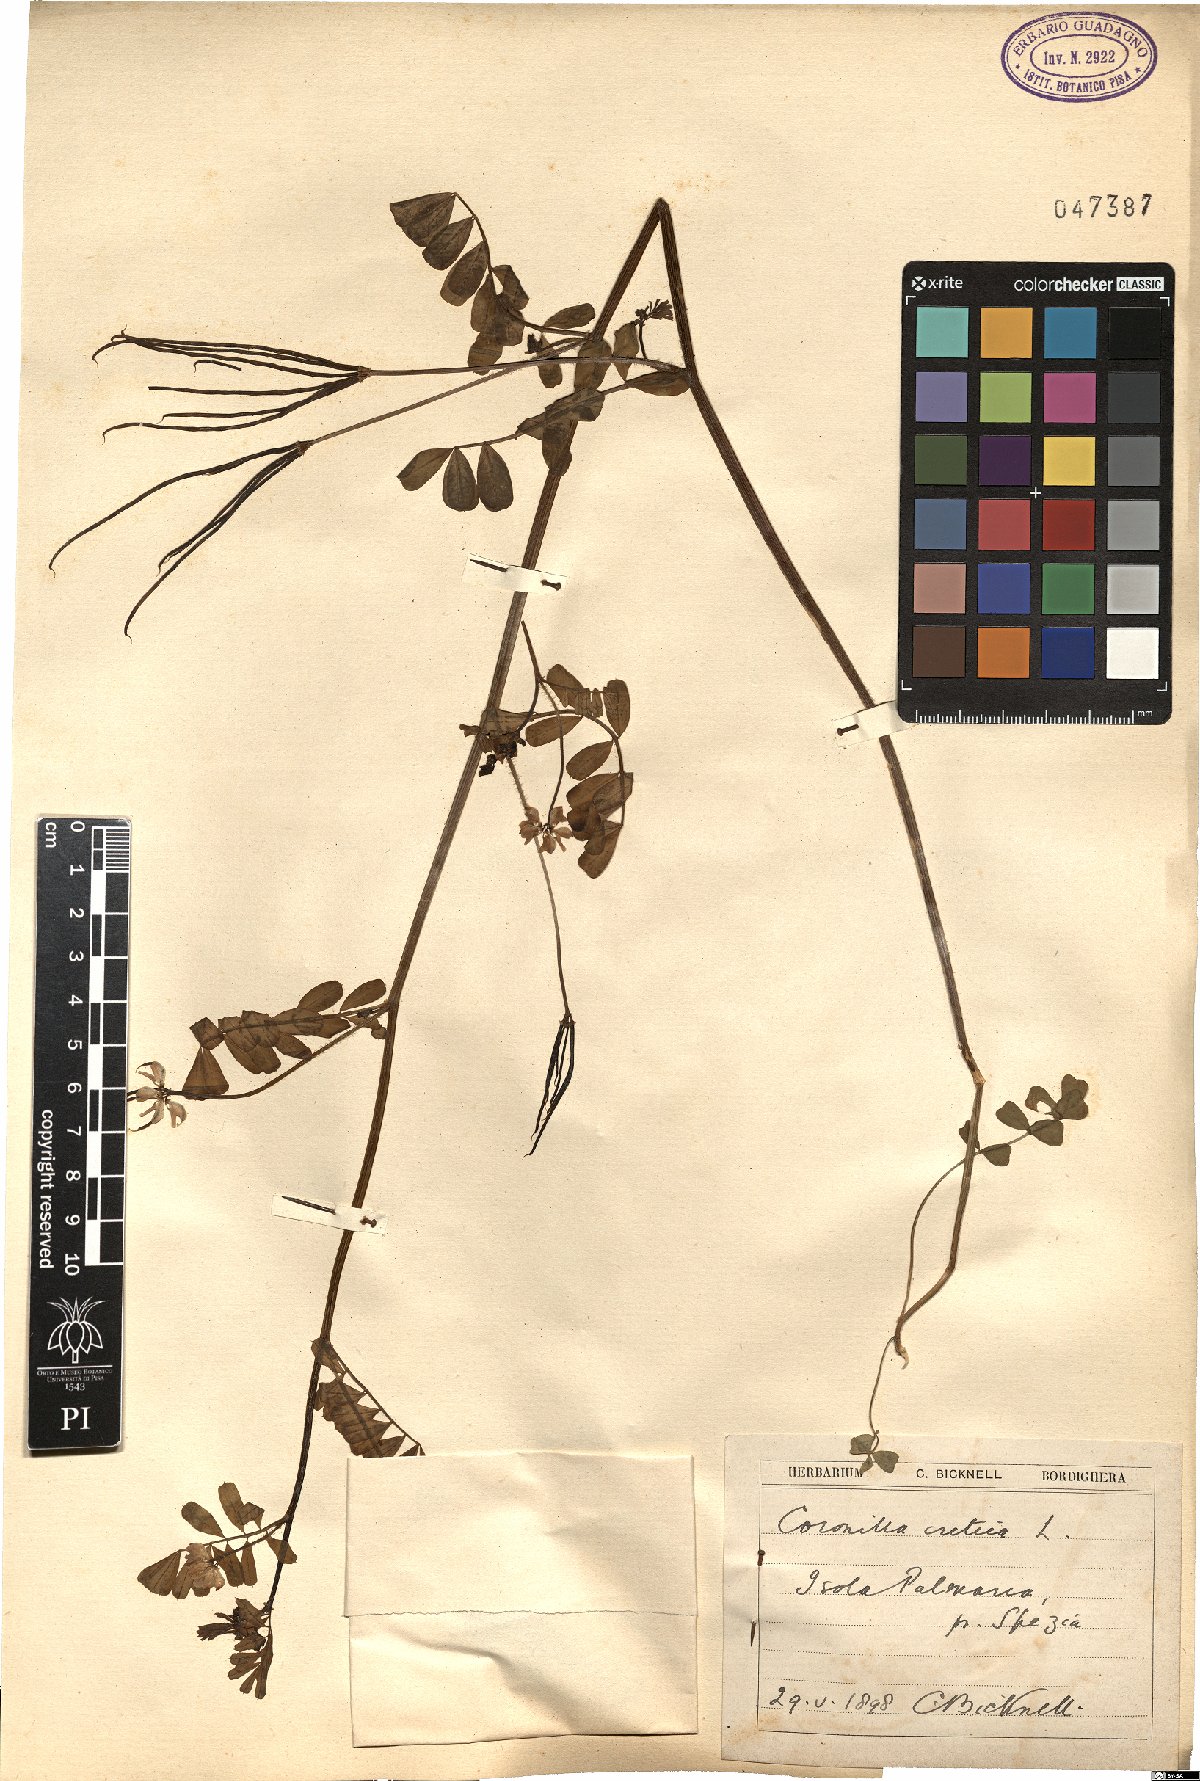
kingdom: Plantae
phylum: Tracheophyta
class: Magnoliopsida
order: Fabales
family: Fabaceae
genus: Coronilla
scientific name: Coronilla cretica
